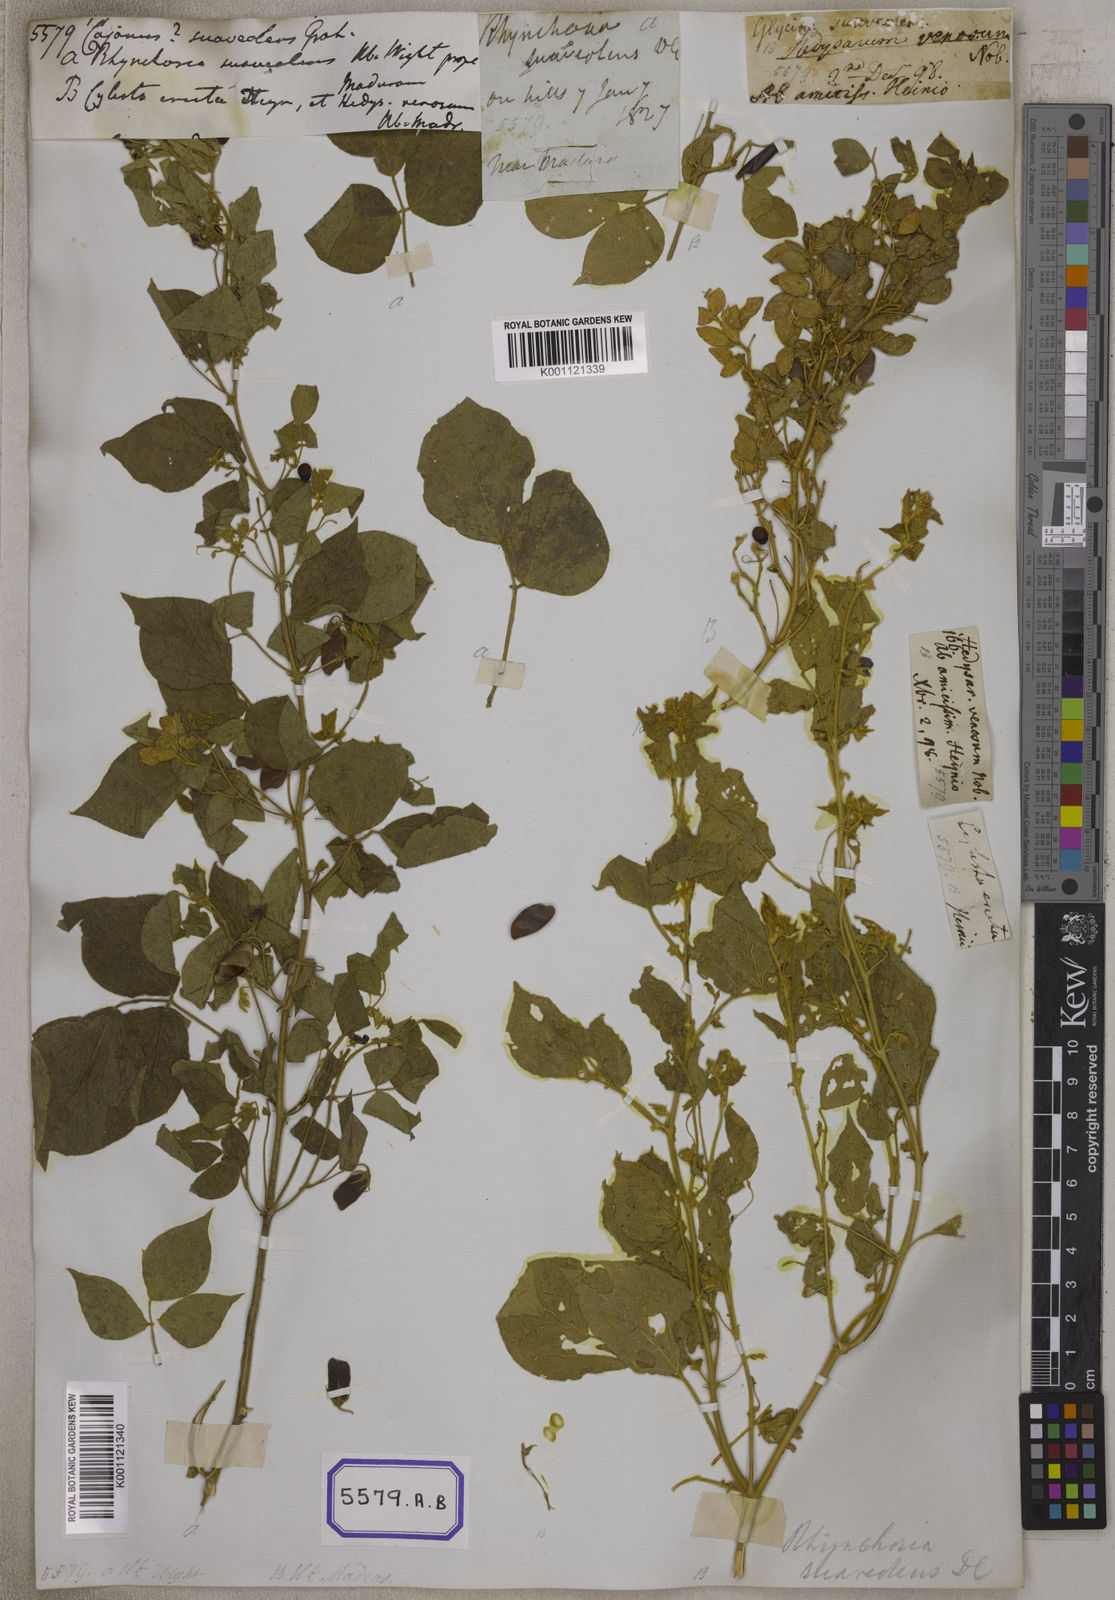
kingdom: Plantae
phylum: Tracheophyta
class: Magnoliopsida
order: Fabales
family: Fabaceae
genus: Rhynchosia
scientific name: Rhynchosia suaveolens
